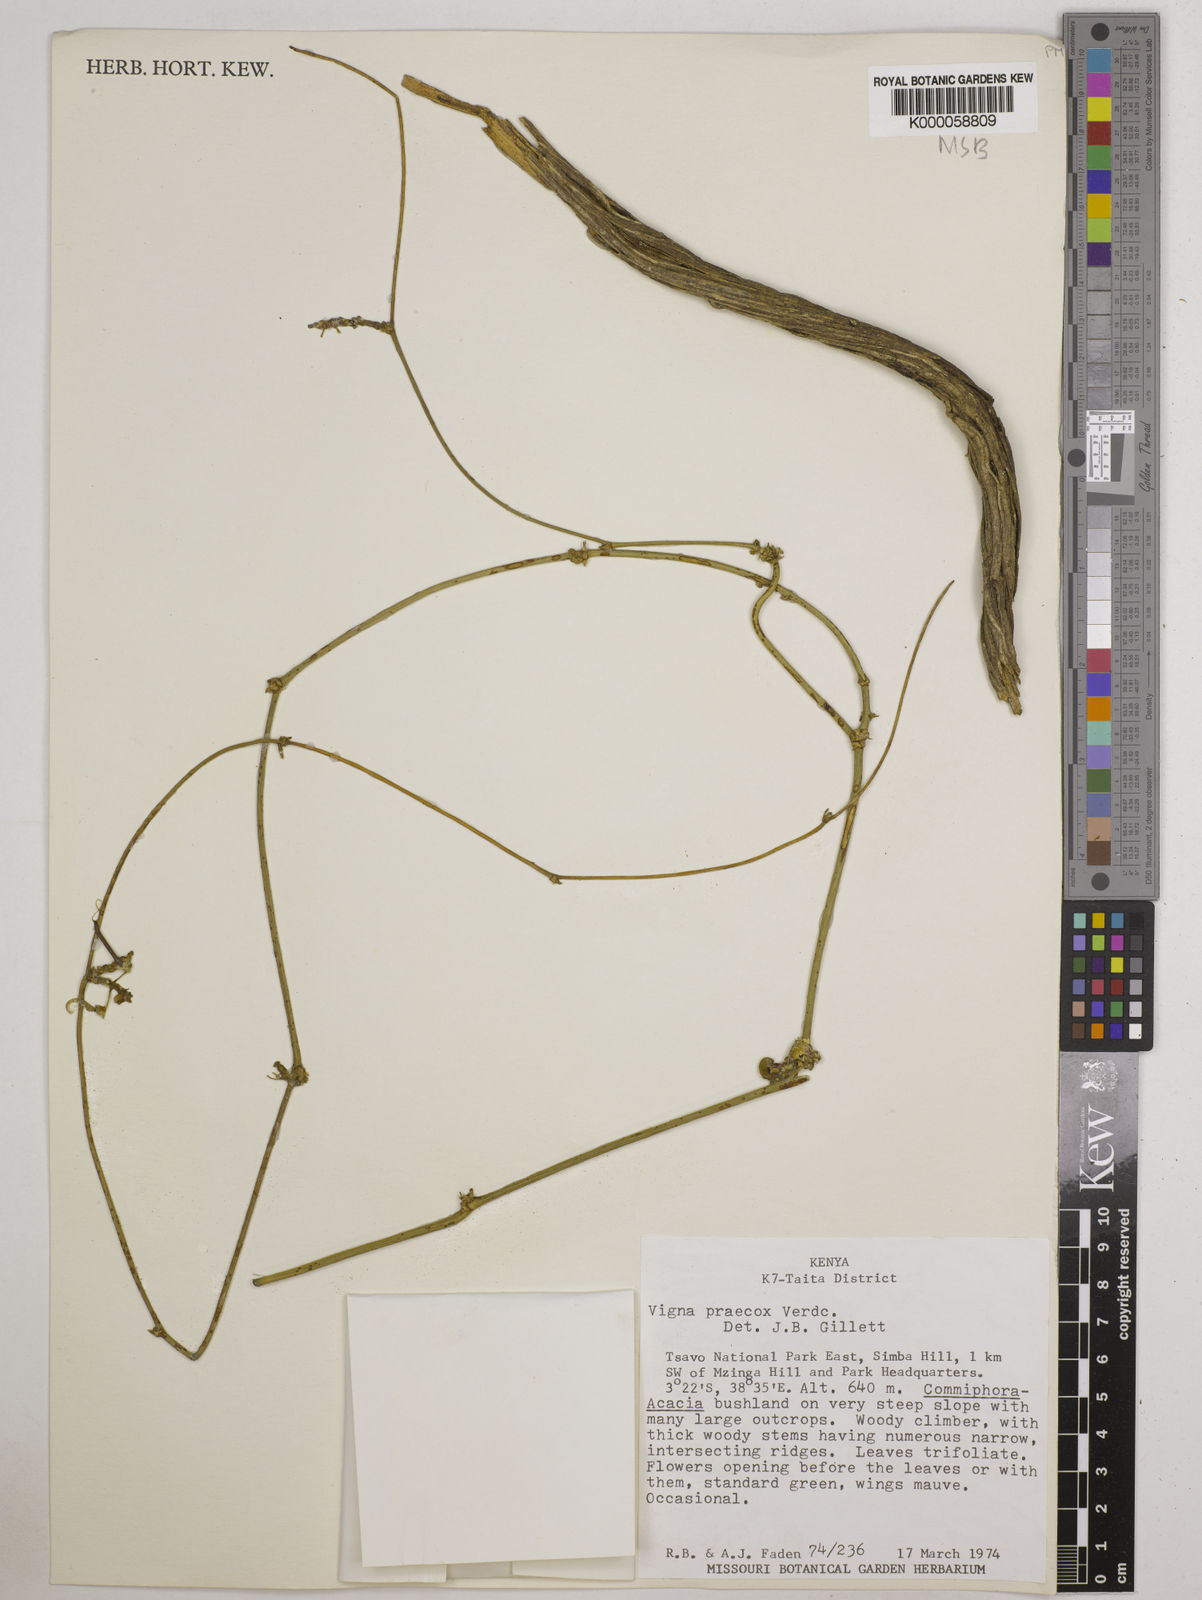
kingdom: Plantae
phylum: Tracheophyta
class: Magnoliopsida
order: Fabales
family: Fabaceae
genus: Wajira
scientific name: Wajira praecox
